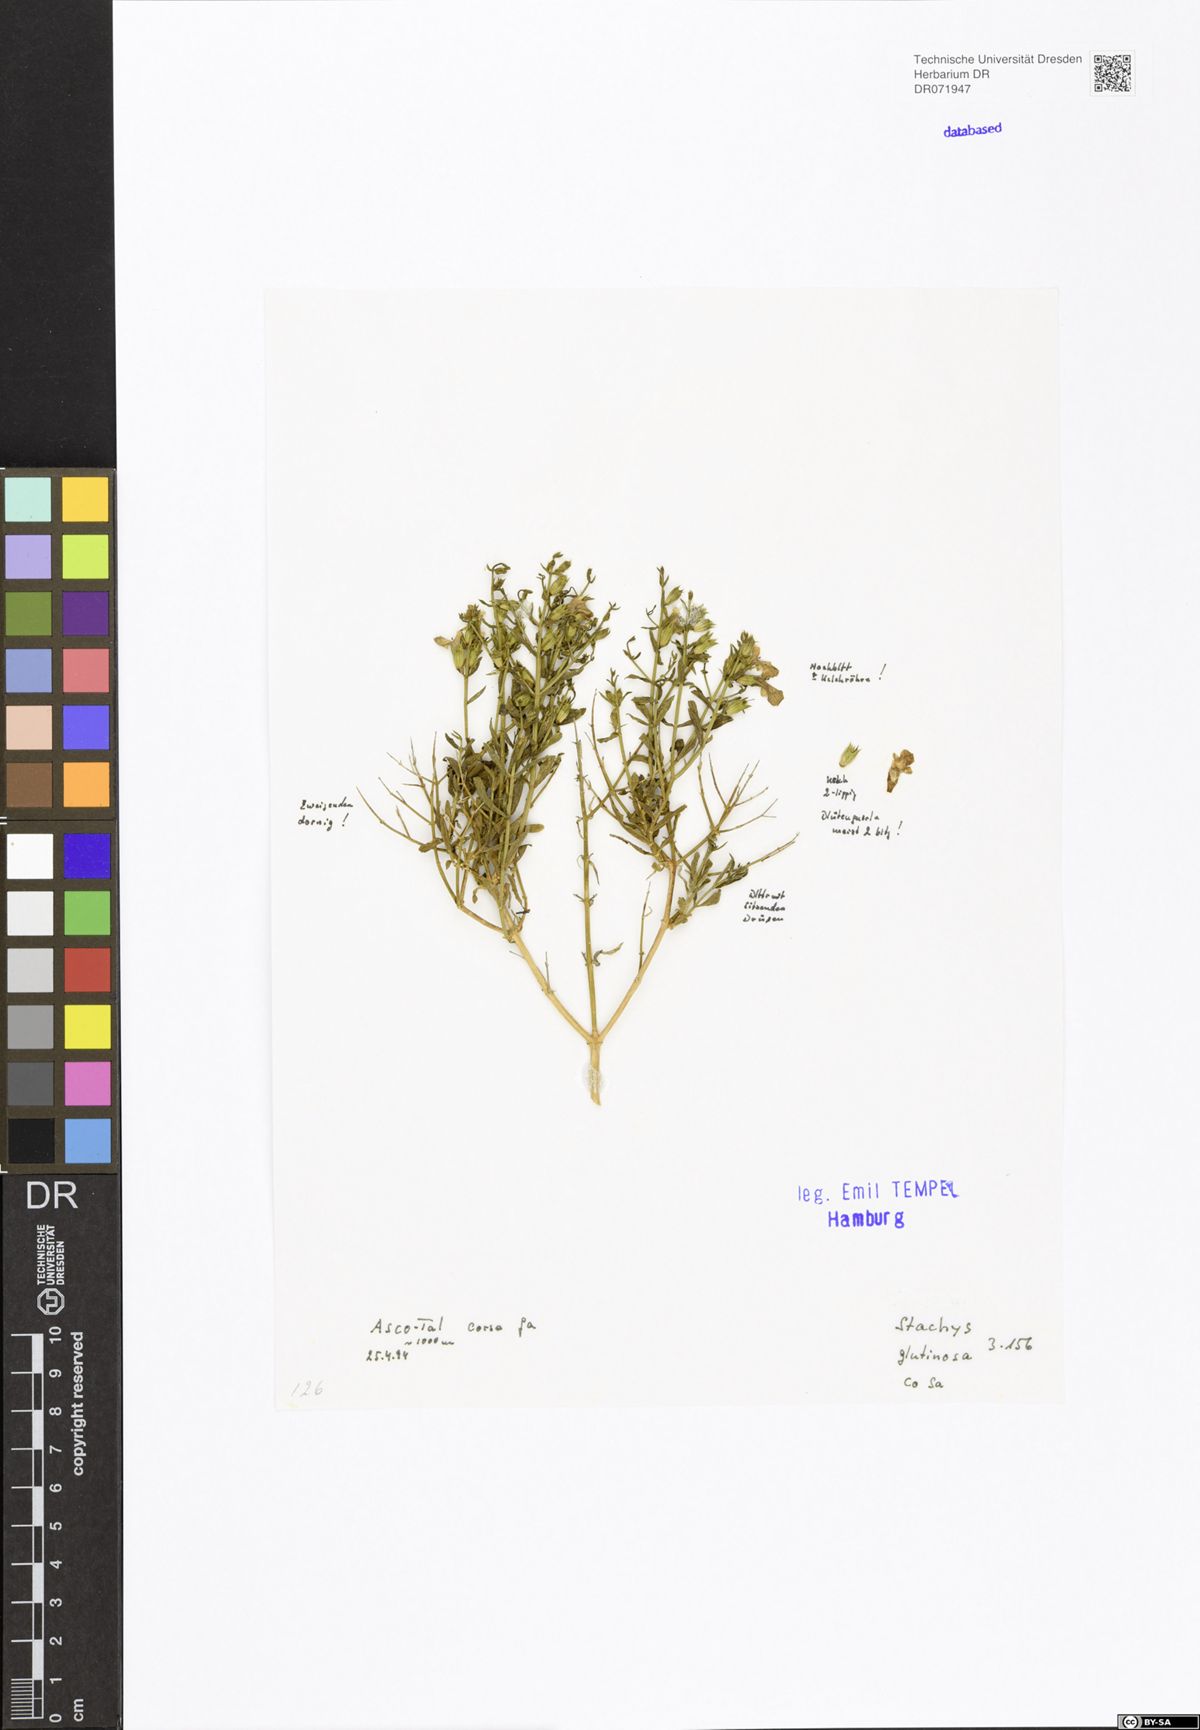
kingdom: Plantae
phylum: Tracheophyta
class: Magnoliopsida
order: Lamiales
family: Lamiaceae
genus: Stachys
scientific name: Stachys glutinosa
